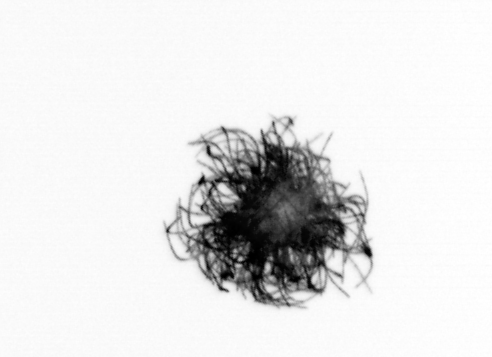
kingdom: Bacteria
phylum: Cyanobacteria
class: Cyanobacteriia
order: Cyanobacteriales
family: Microcoleaceae
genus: Trichodesmium
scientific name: Trichodesmium
